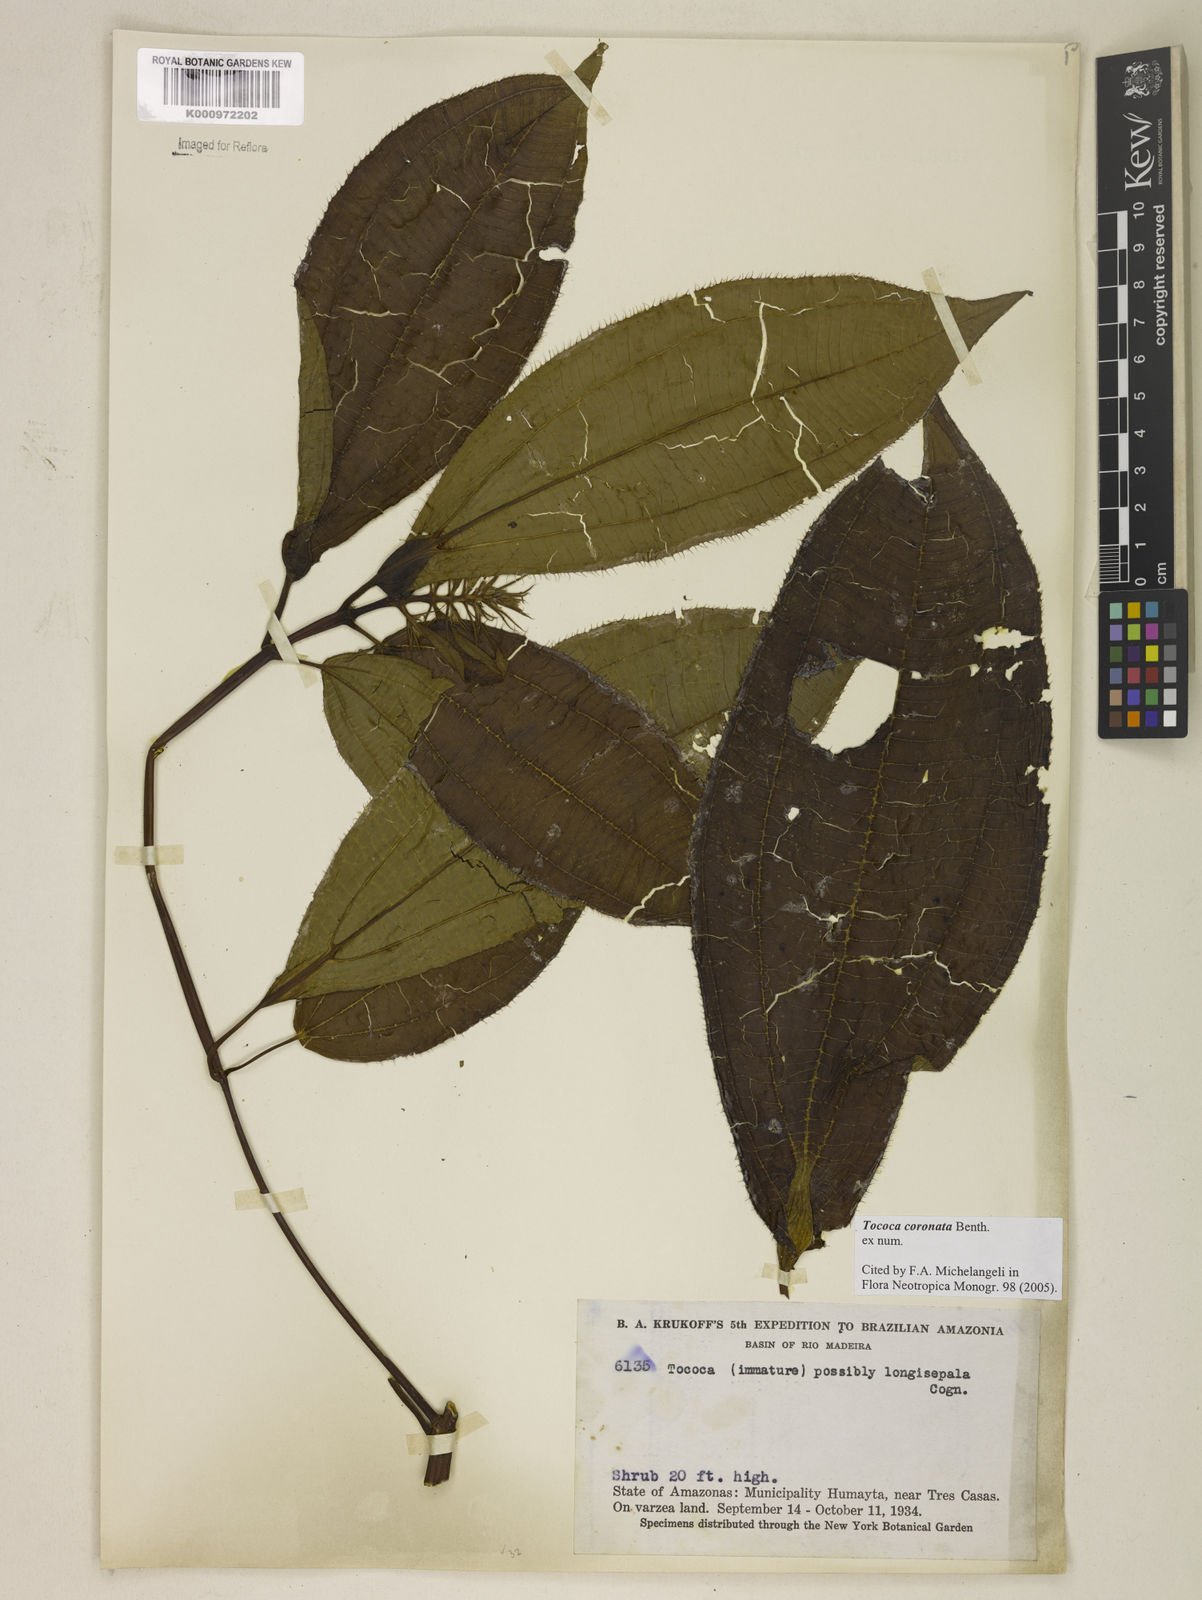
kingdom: Plantae
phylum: Tracheophyta
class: Magnoliopsida
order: Myrtales
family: Melastomataceae
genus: Miconia
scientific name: Miconia tococoronata
